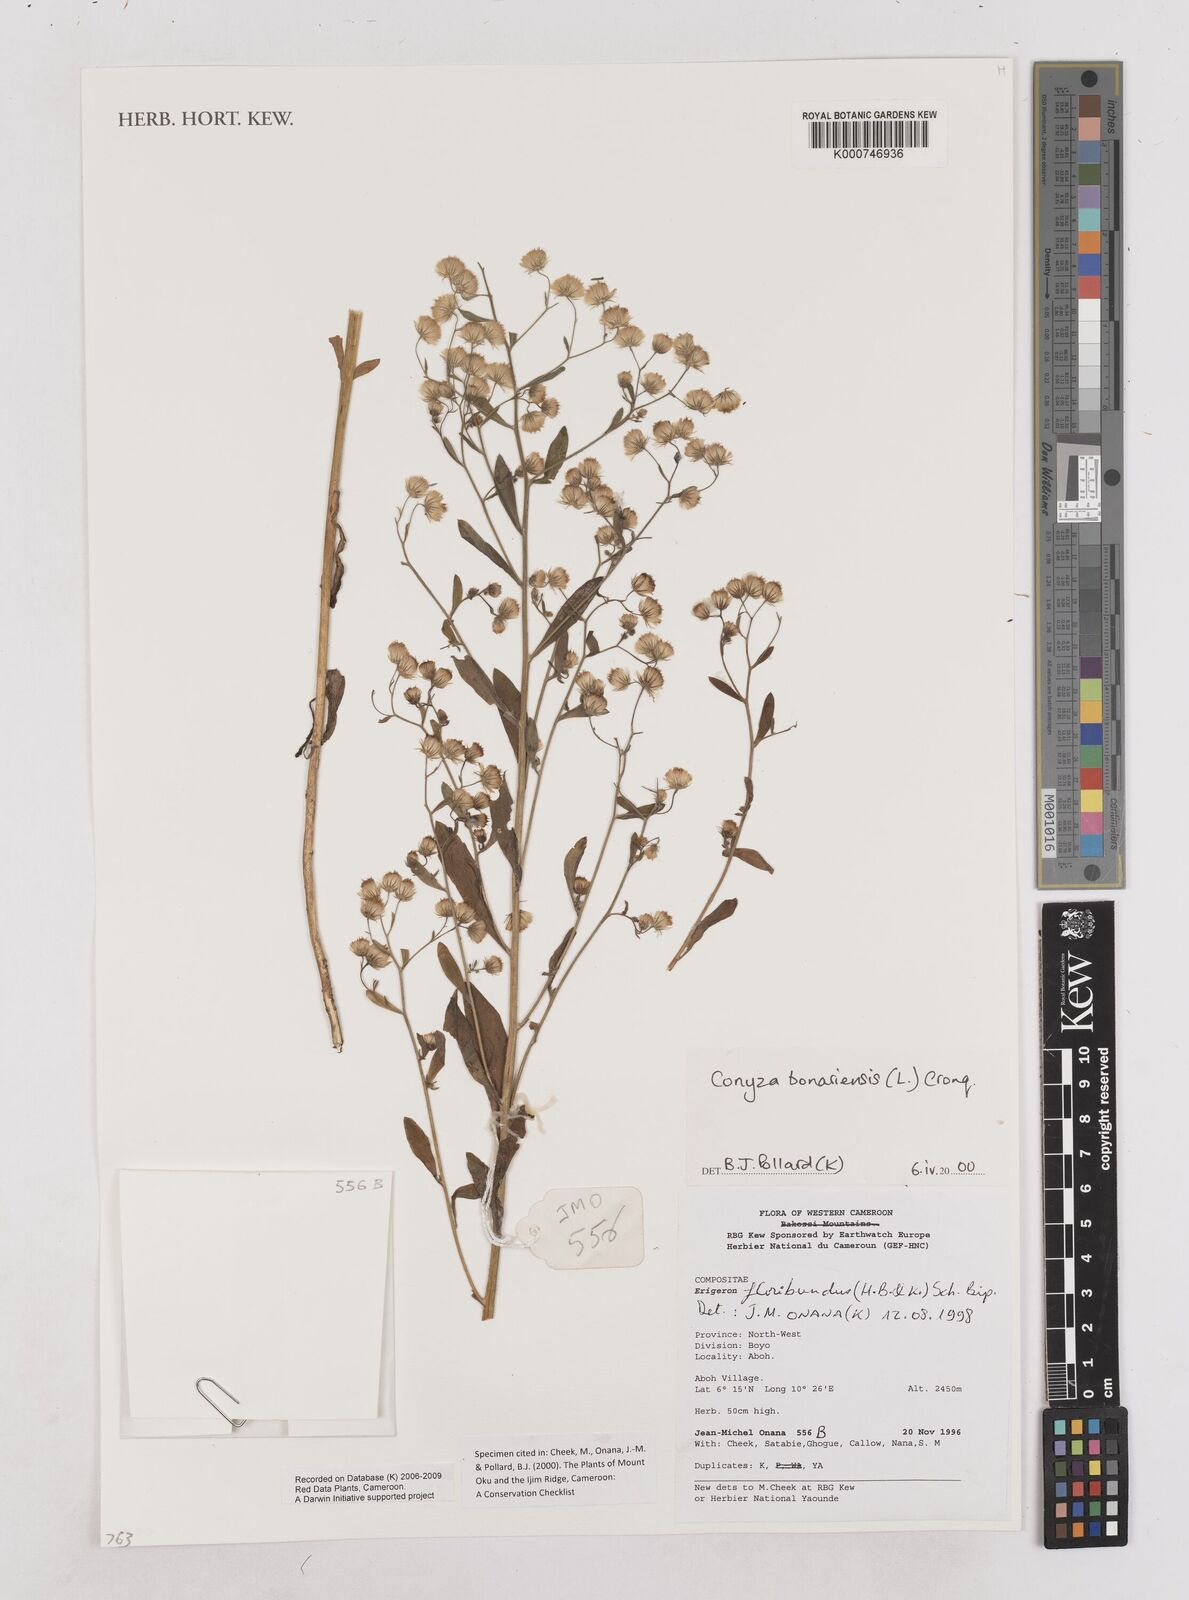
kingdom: Plantae
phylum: Tracheophyta
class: Magnoliopsida
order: Asterales
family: Asteraceae
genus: Erigeron
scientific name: Erigeron bonariensis
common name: Argentine fleabane
